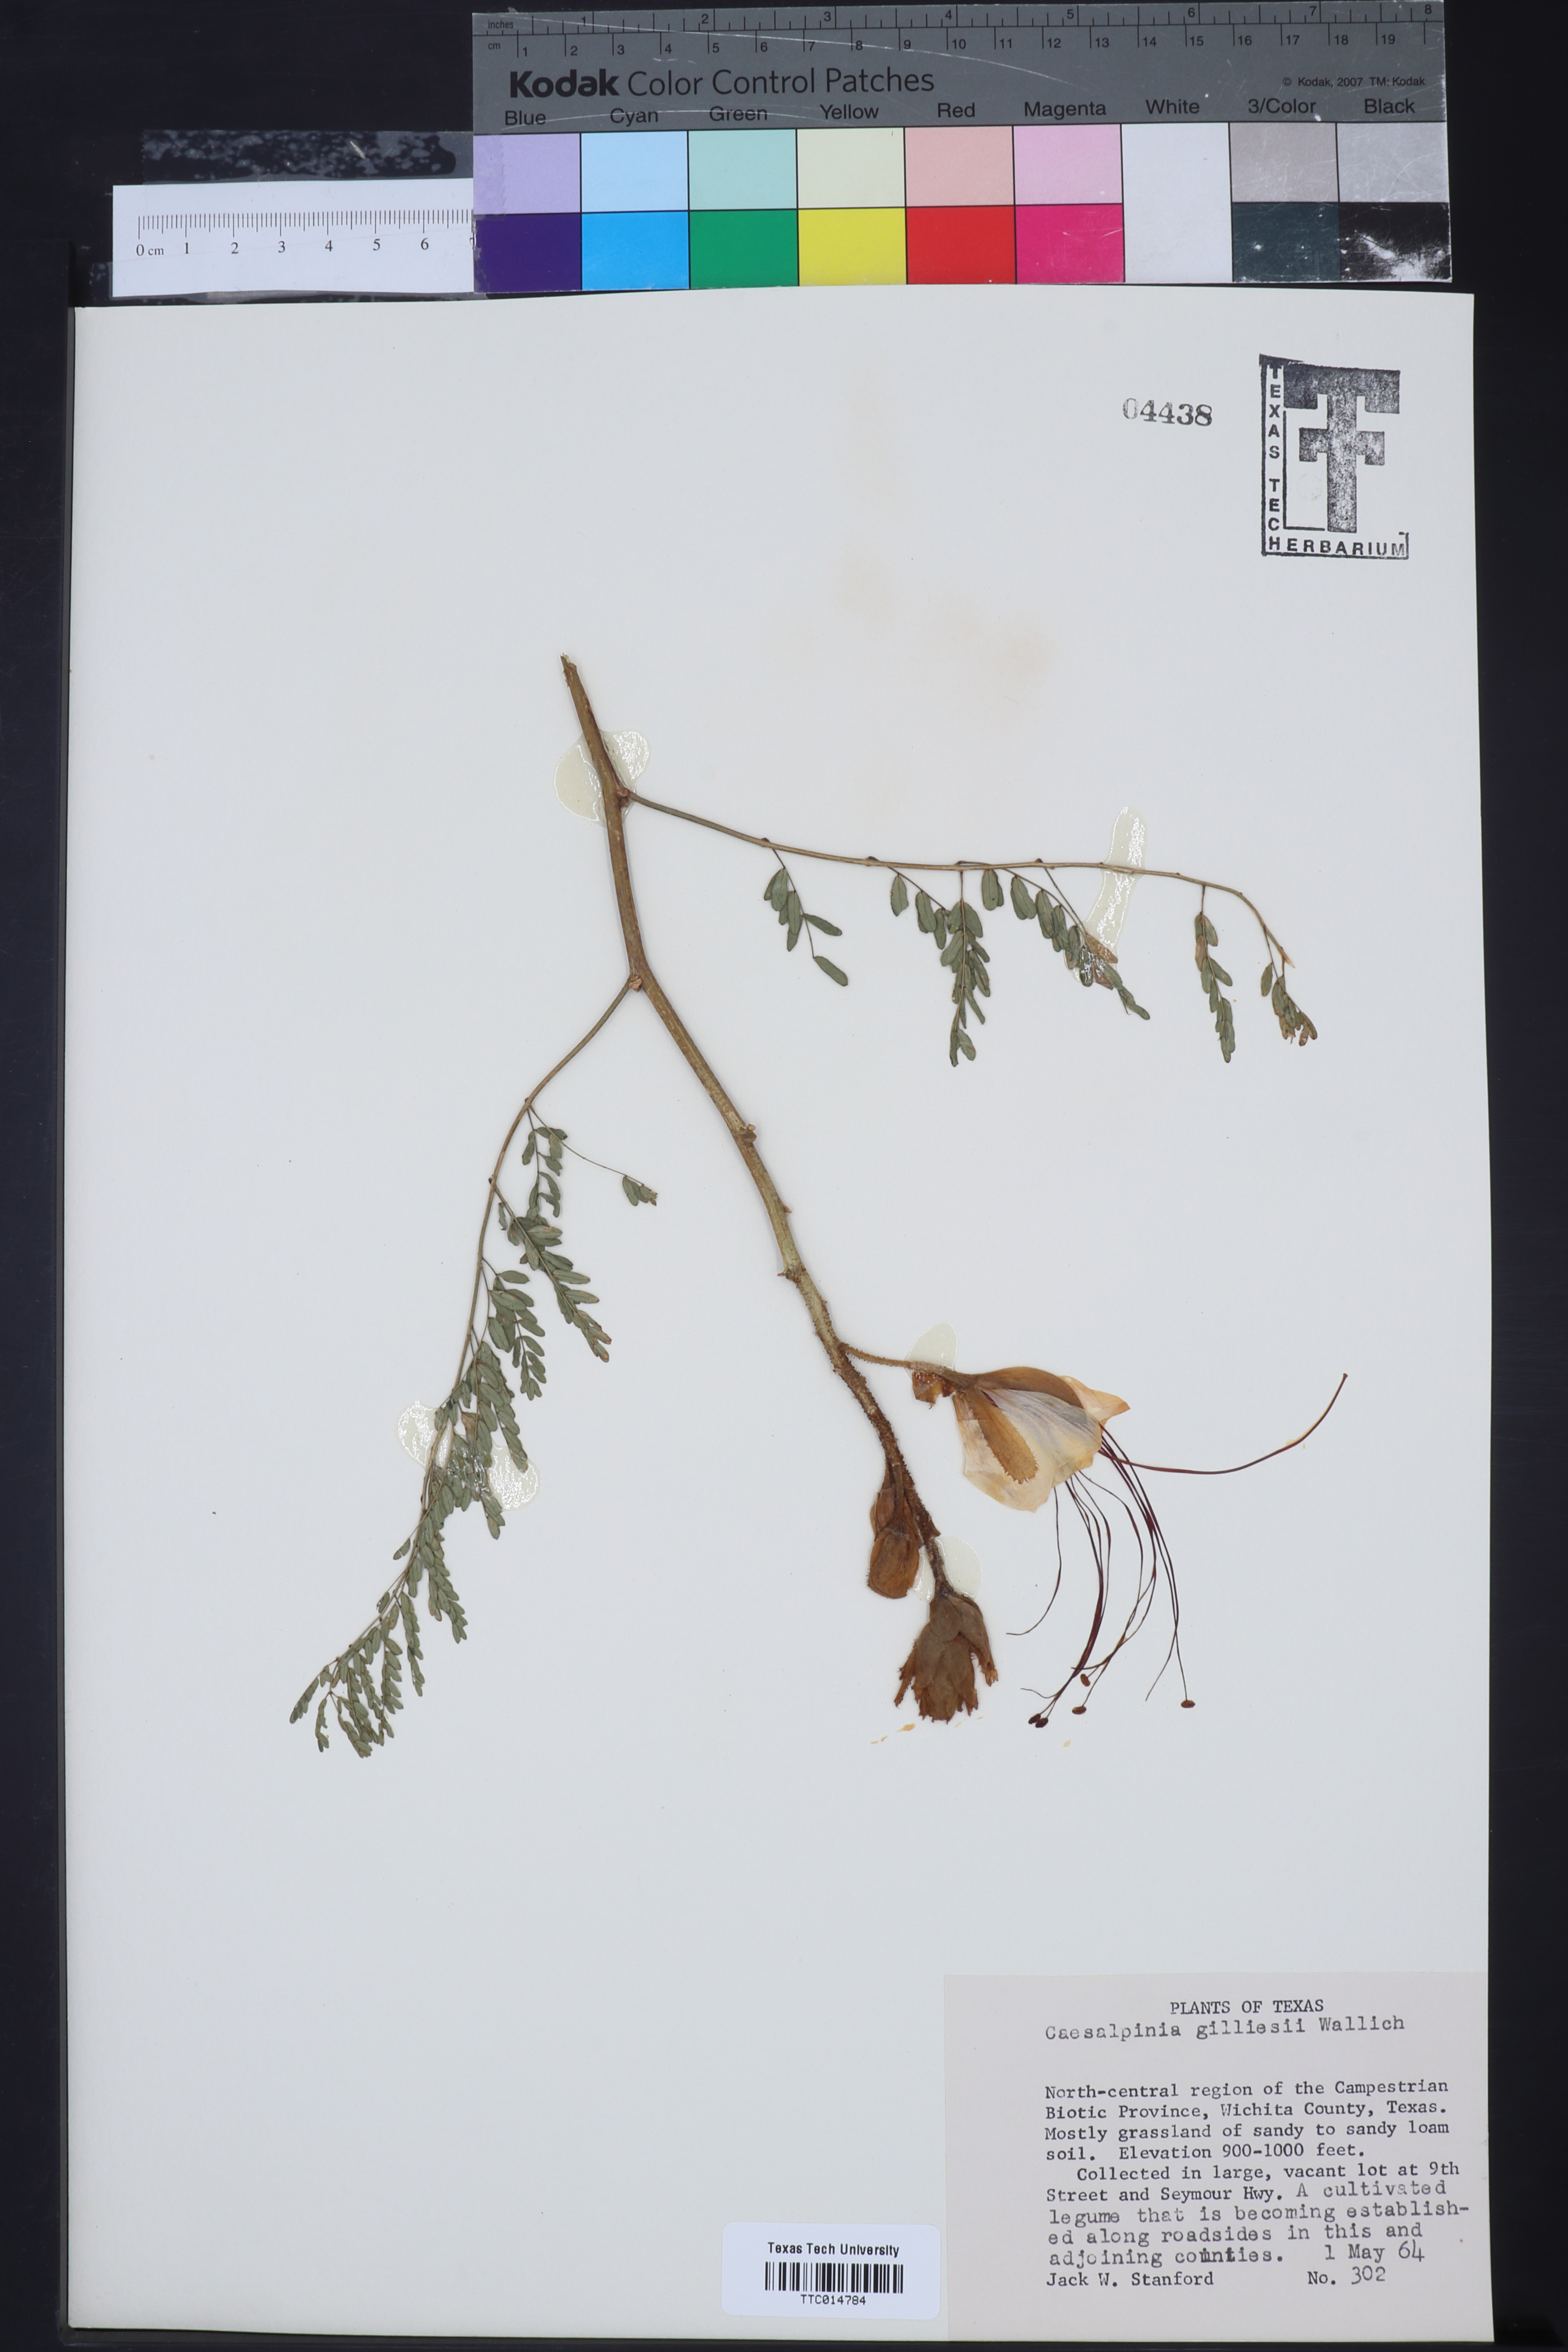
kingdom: Plantae
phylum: Tracheophyta
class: Magnoliopsida
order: Fabales
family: Fabaceae
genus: Erythrostemon
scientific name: Erythrostemon gilliesii
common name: Bird-of-paradise shrub
